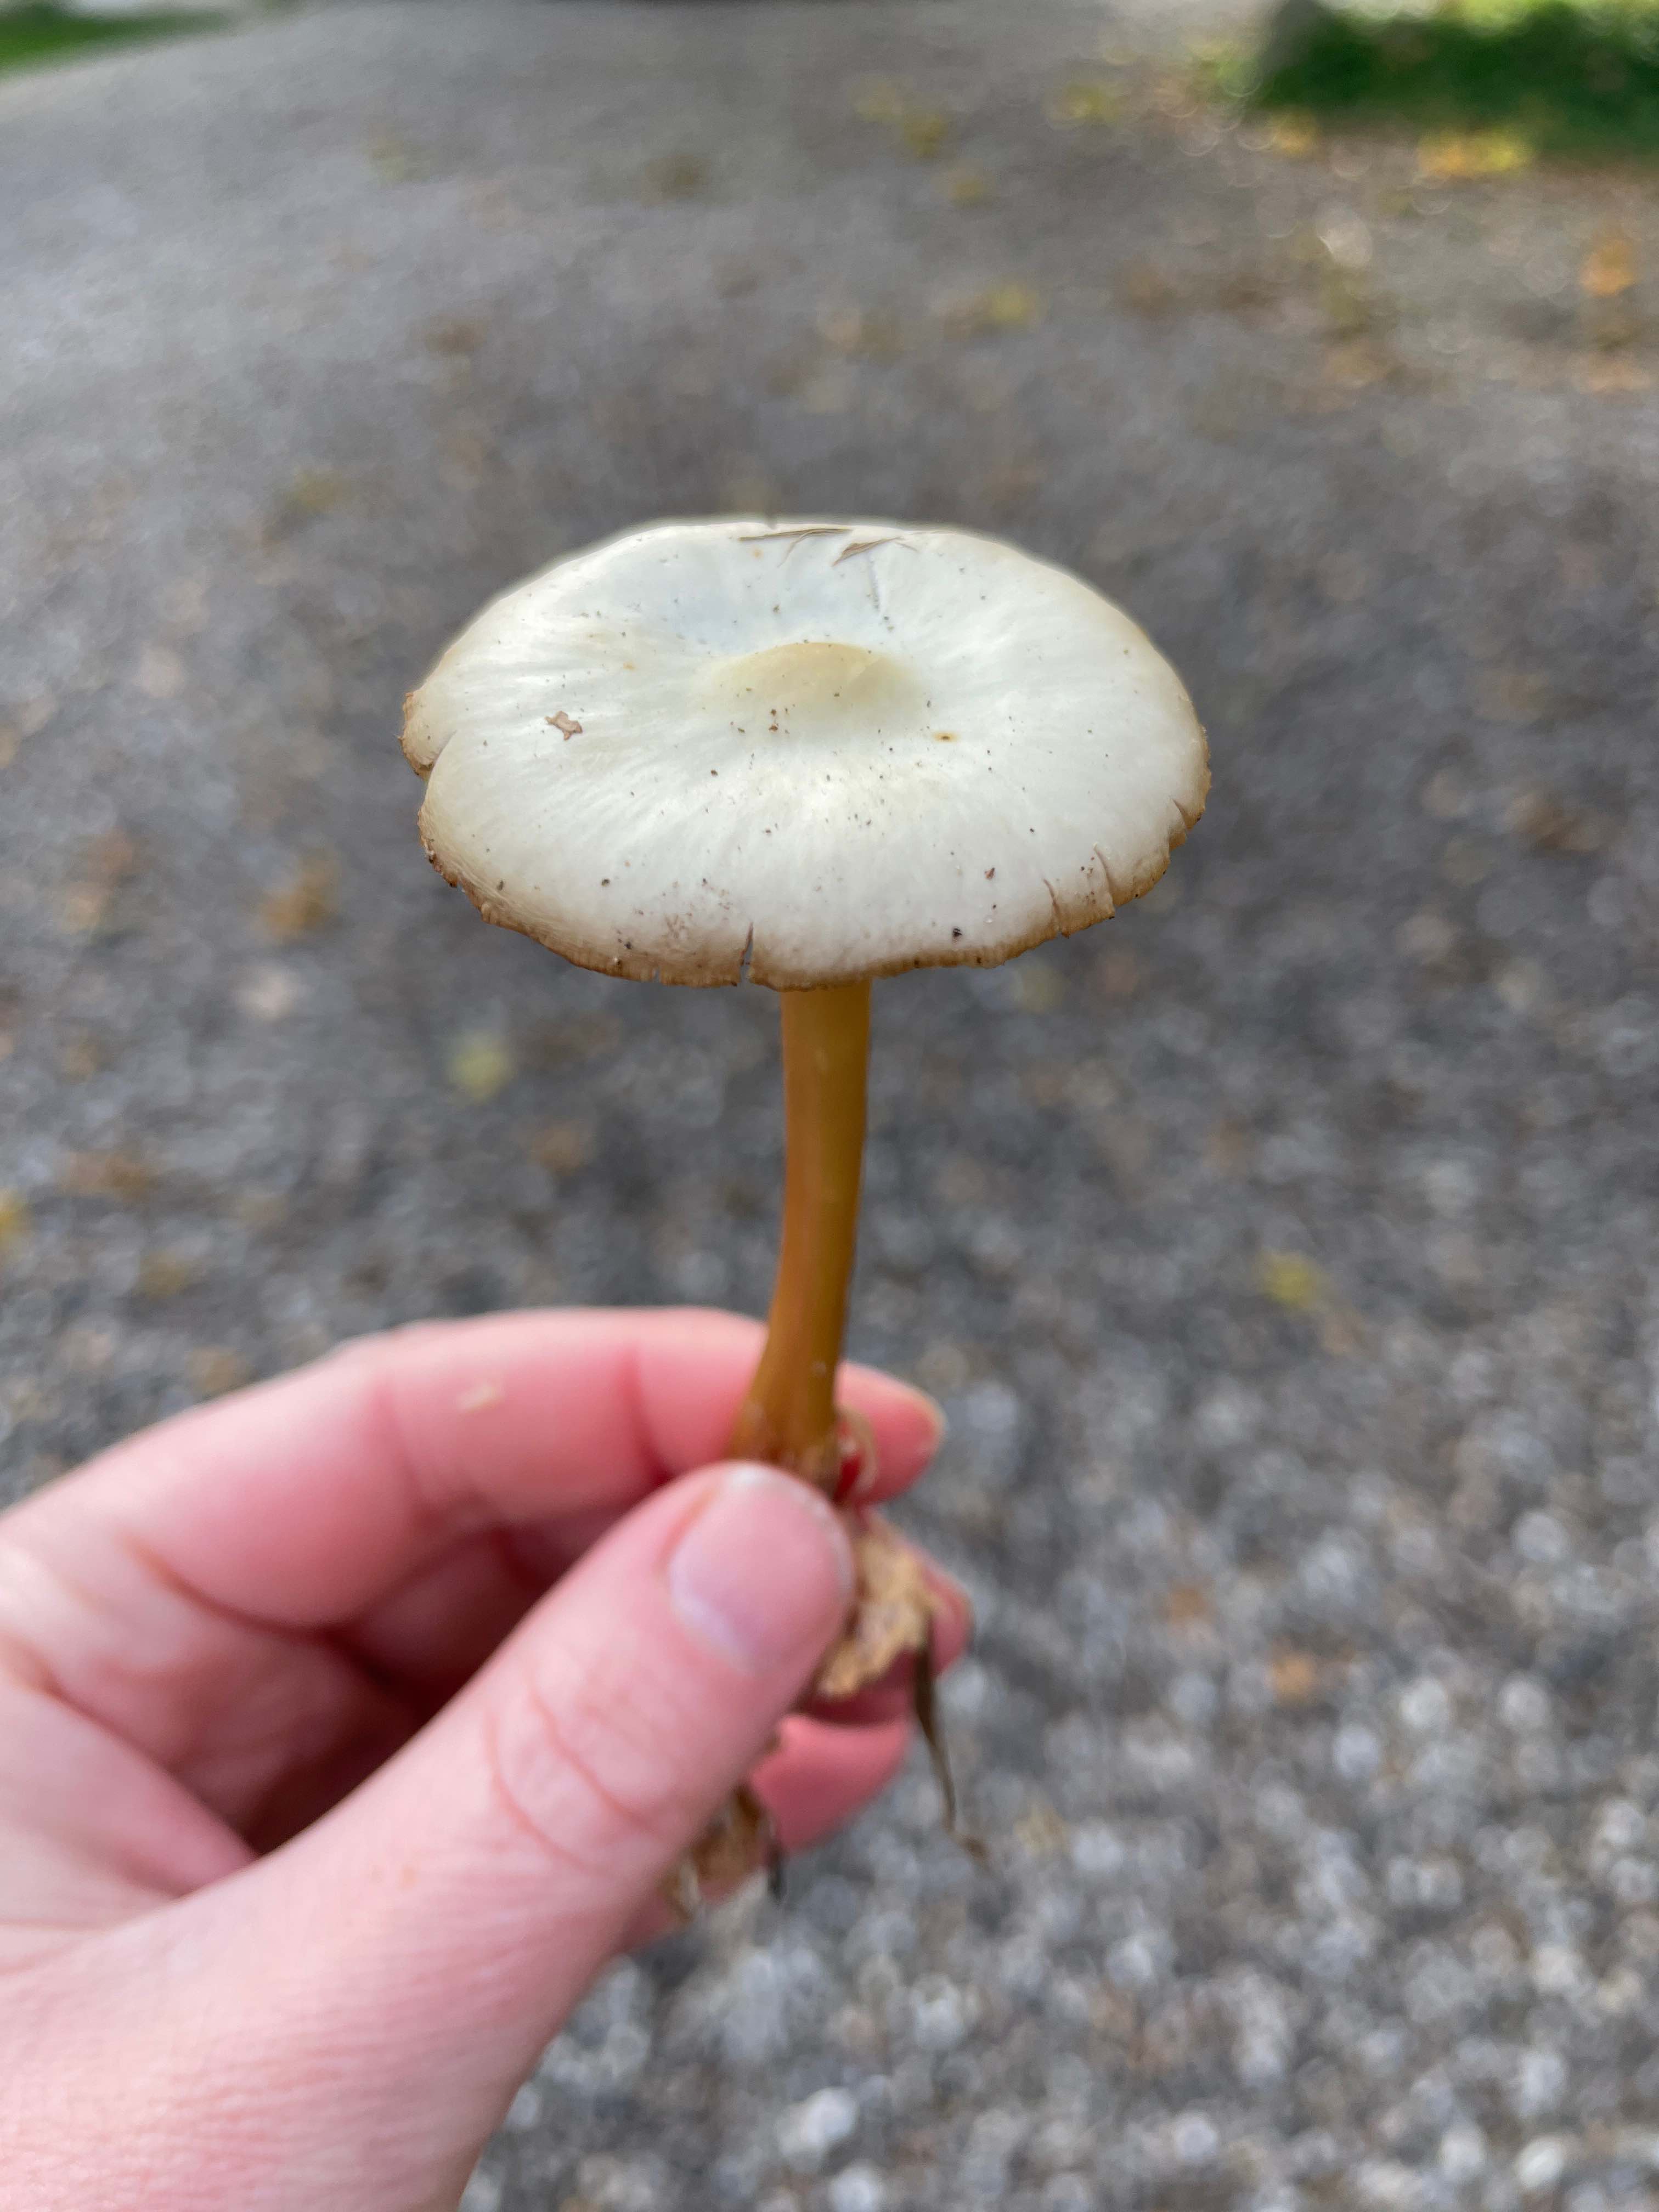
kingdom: Fungi
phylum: Basidiomycota
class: Agaricomycetes
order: Agaricales
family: Omphalotaceae
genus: Rhodocollybia
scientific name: Rhodocollybia asema
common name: horngrå fladhat
